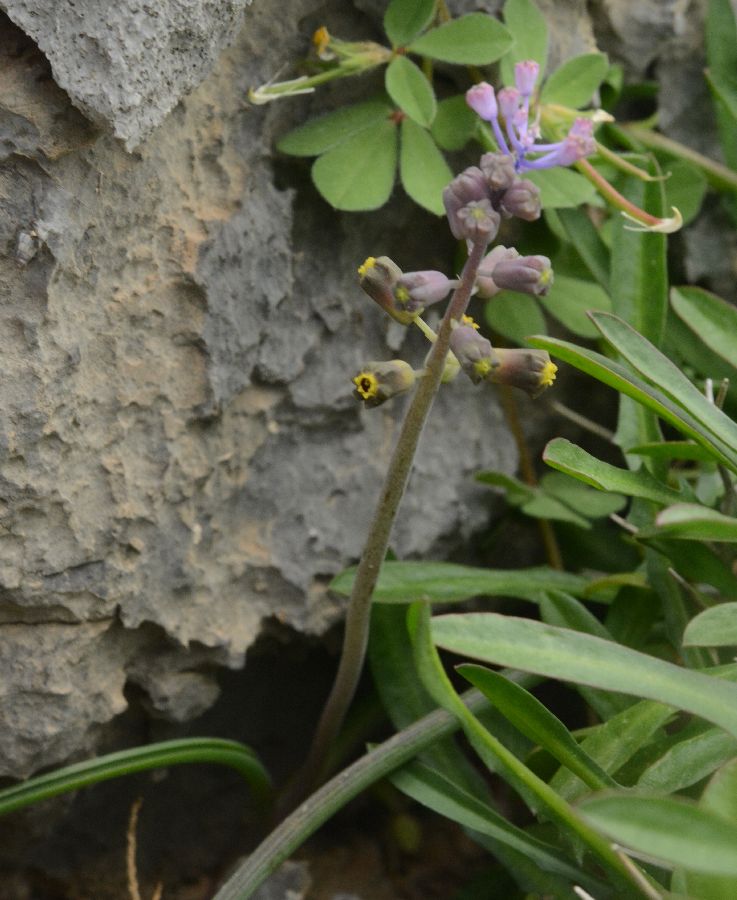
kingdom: Plantae
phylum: Tracheophyta
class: Liliopsida
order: Asparagales
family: Asparagaceae
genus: Muscari
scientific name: Muscari spreitzenhoferi
